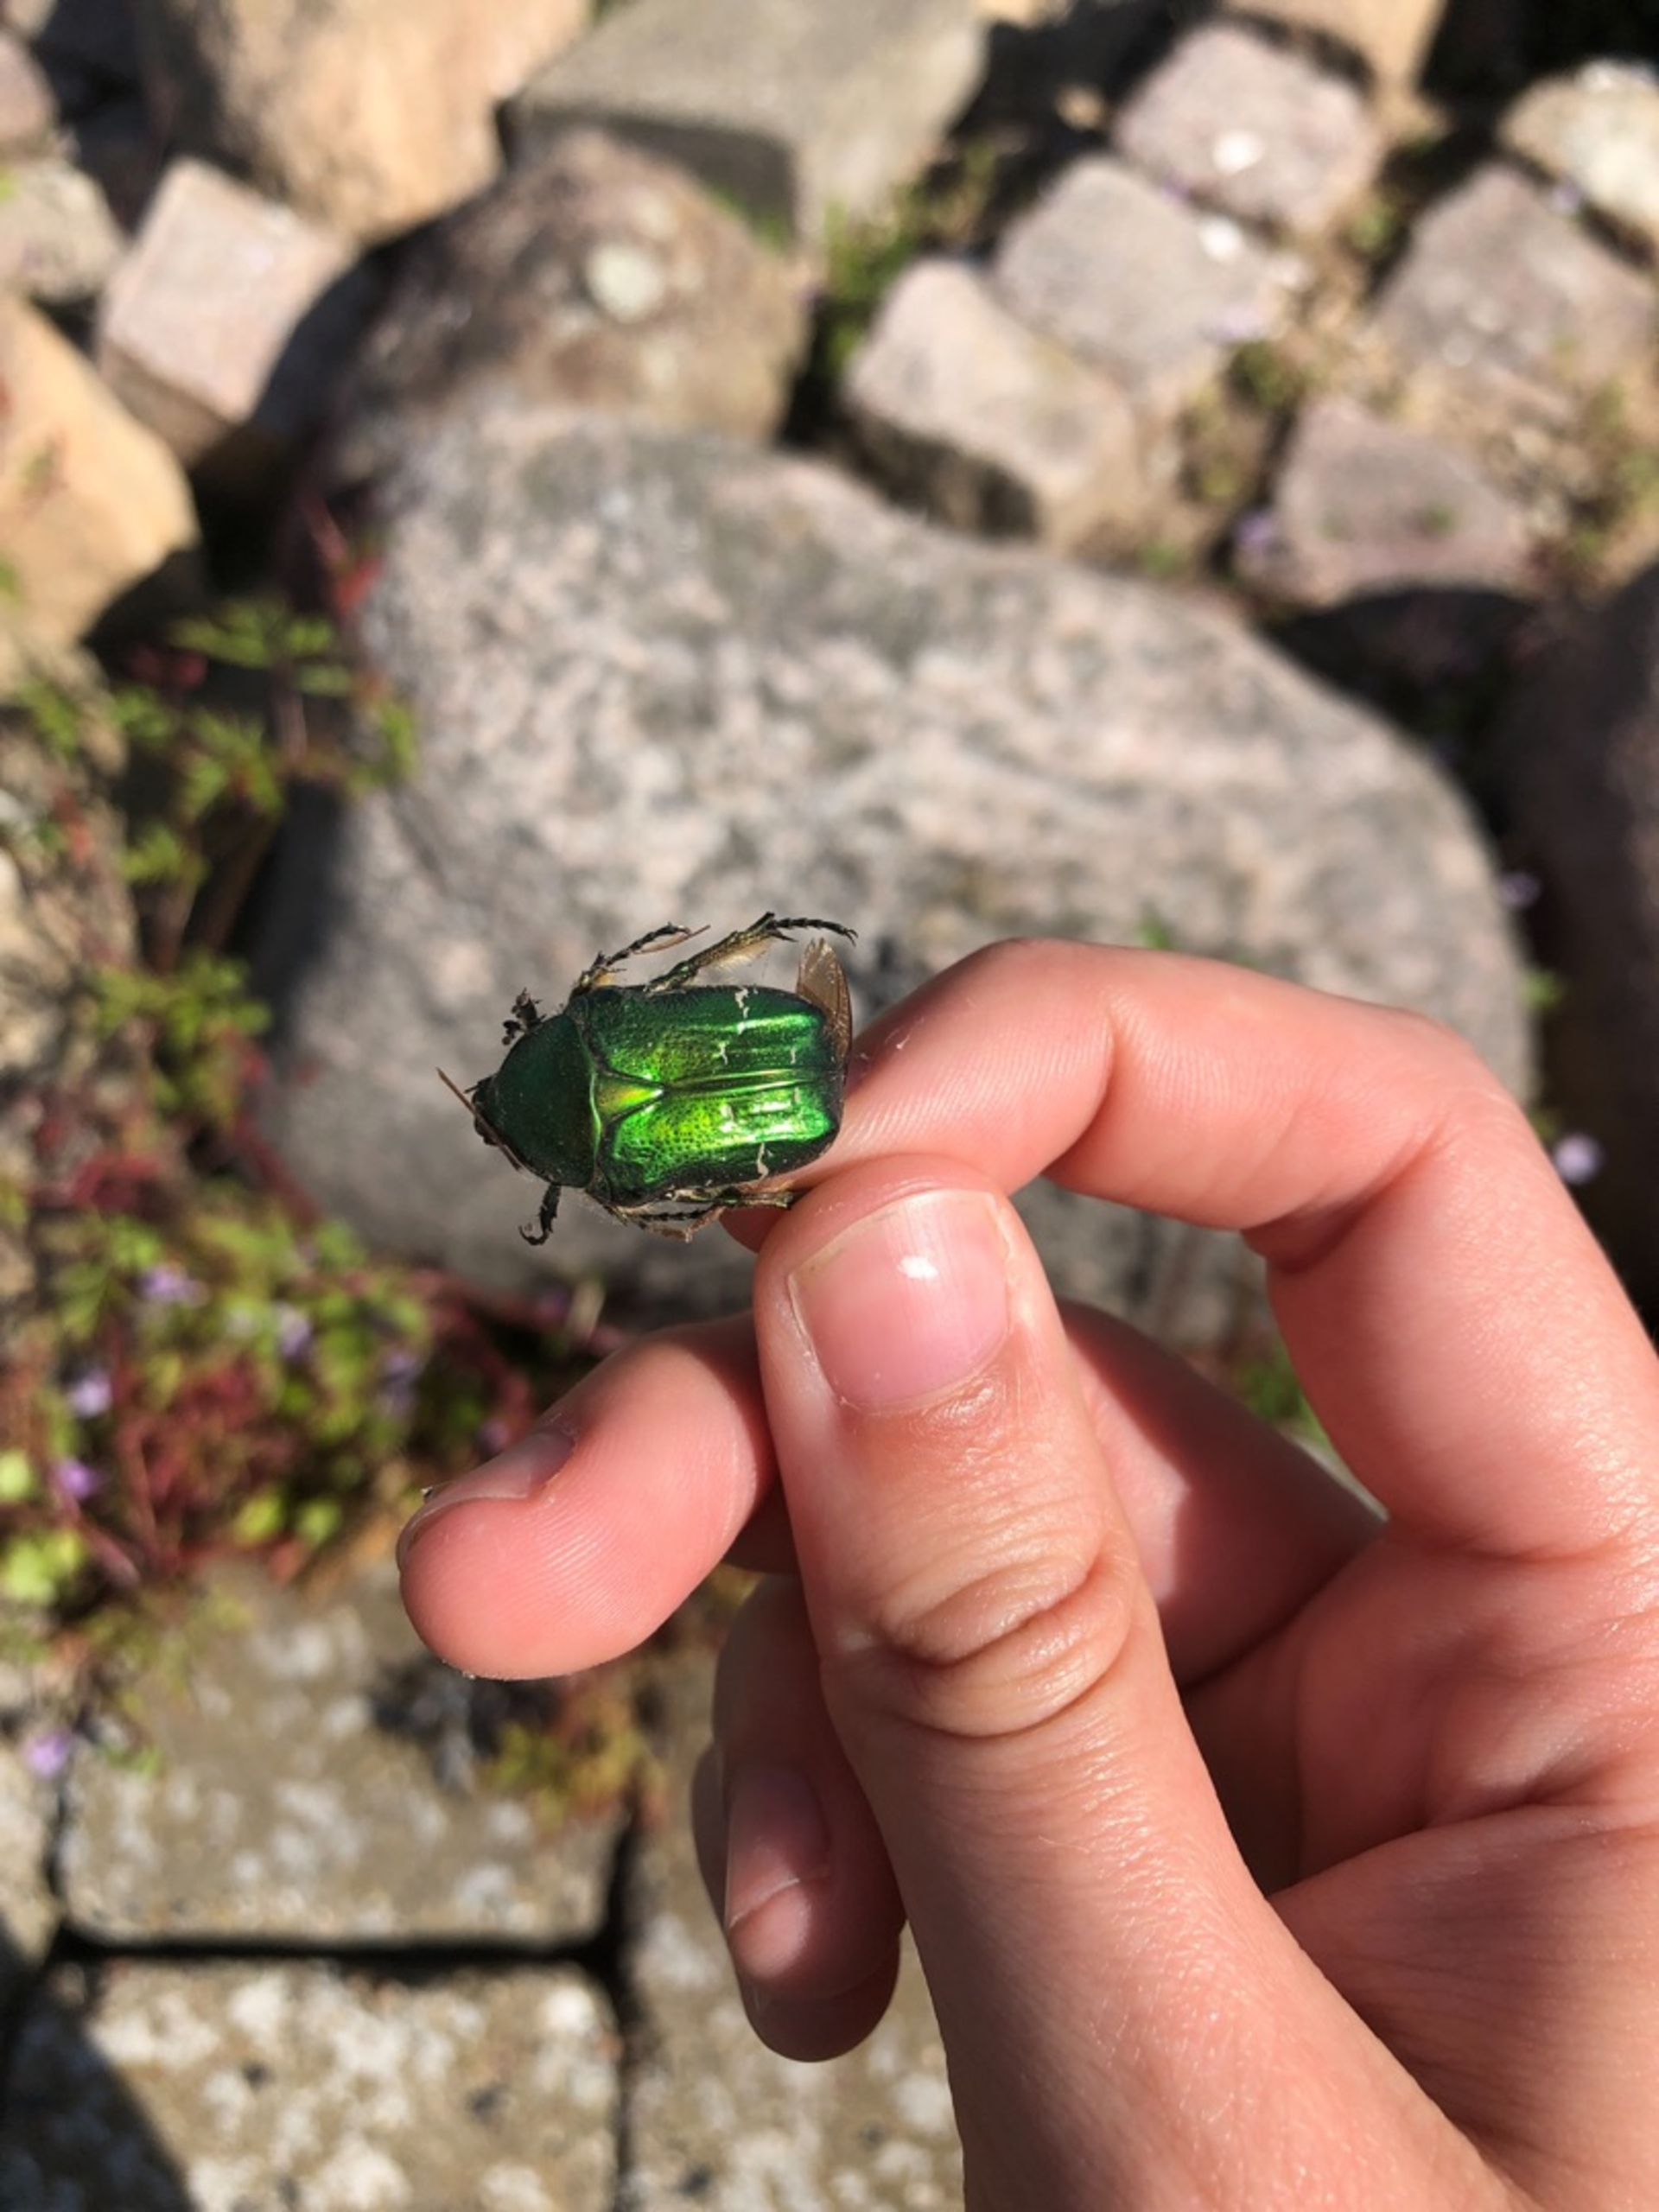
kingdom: Animalia
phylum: Arthropoda
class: Insecta
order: Coleoptera
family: Scarabaeidae
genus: Cetonia
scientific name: Cetonia aurata
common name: Grøn guldbasse
